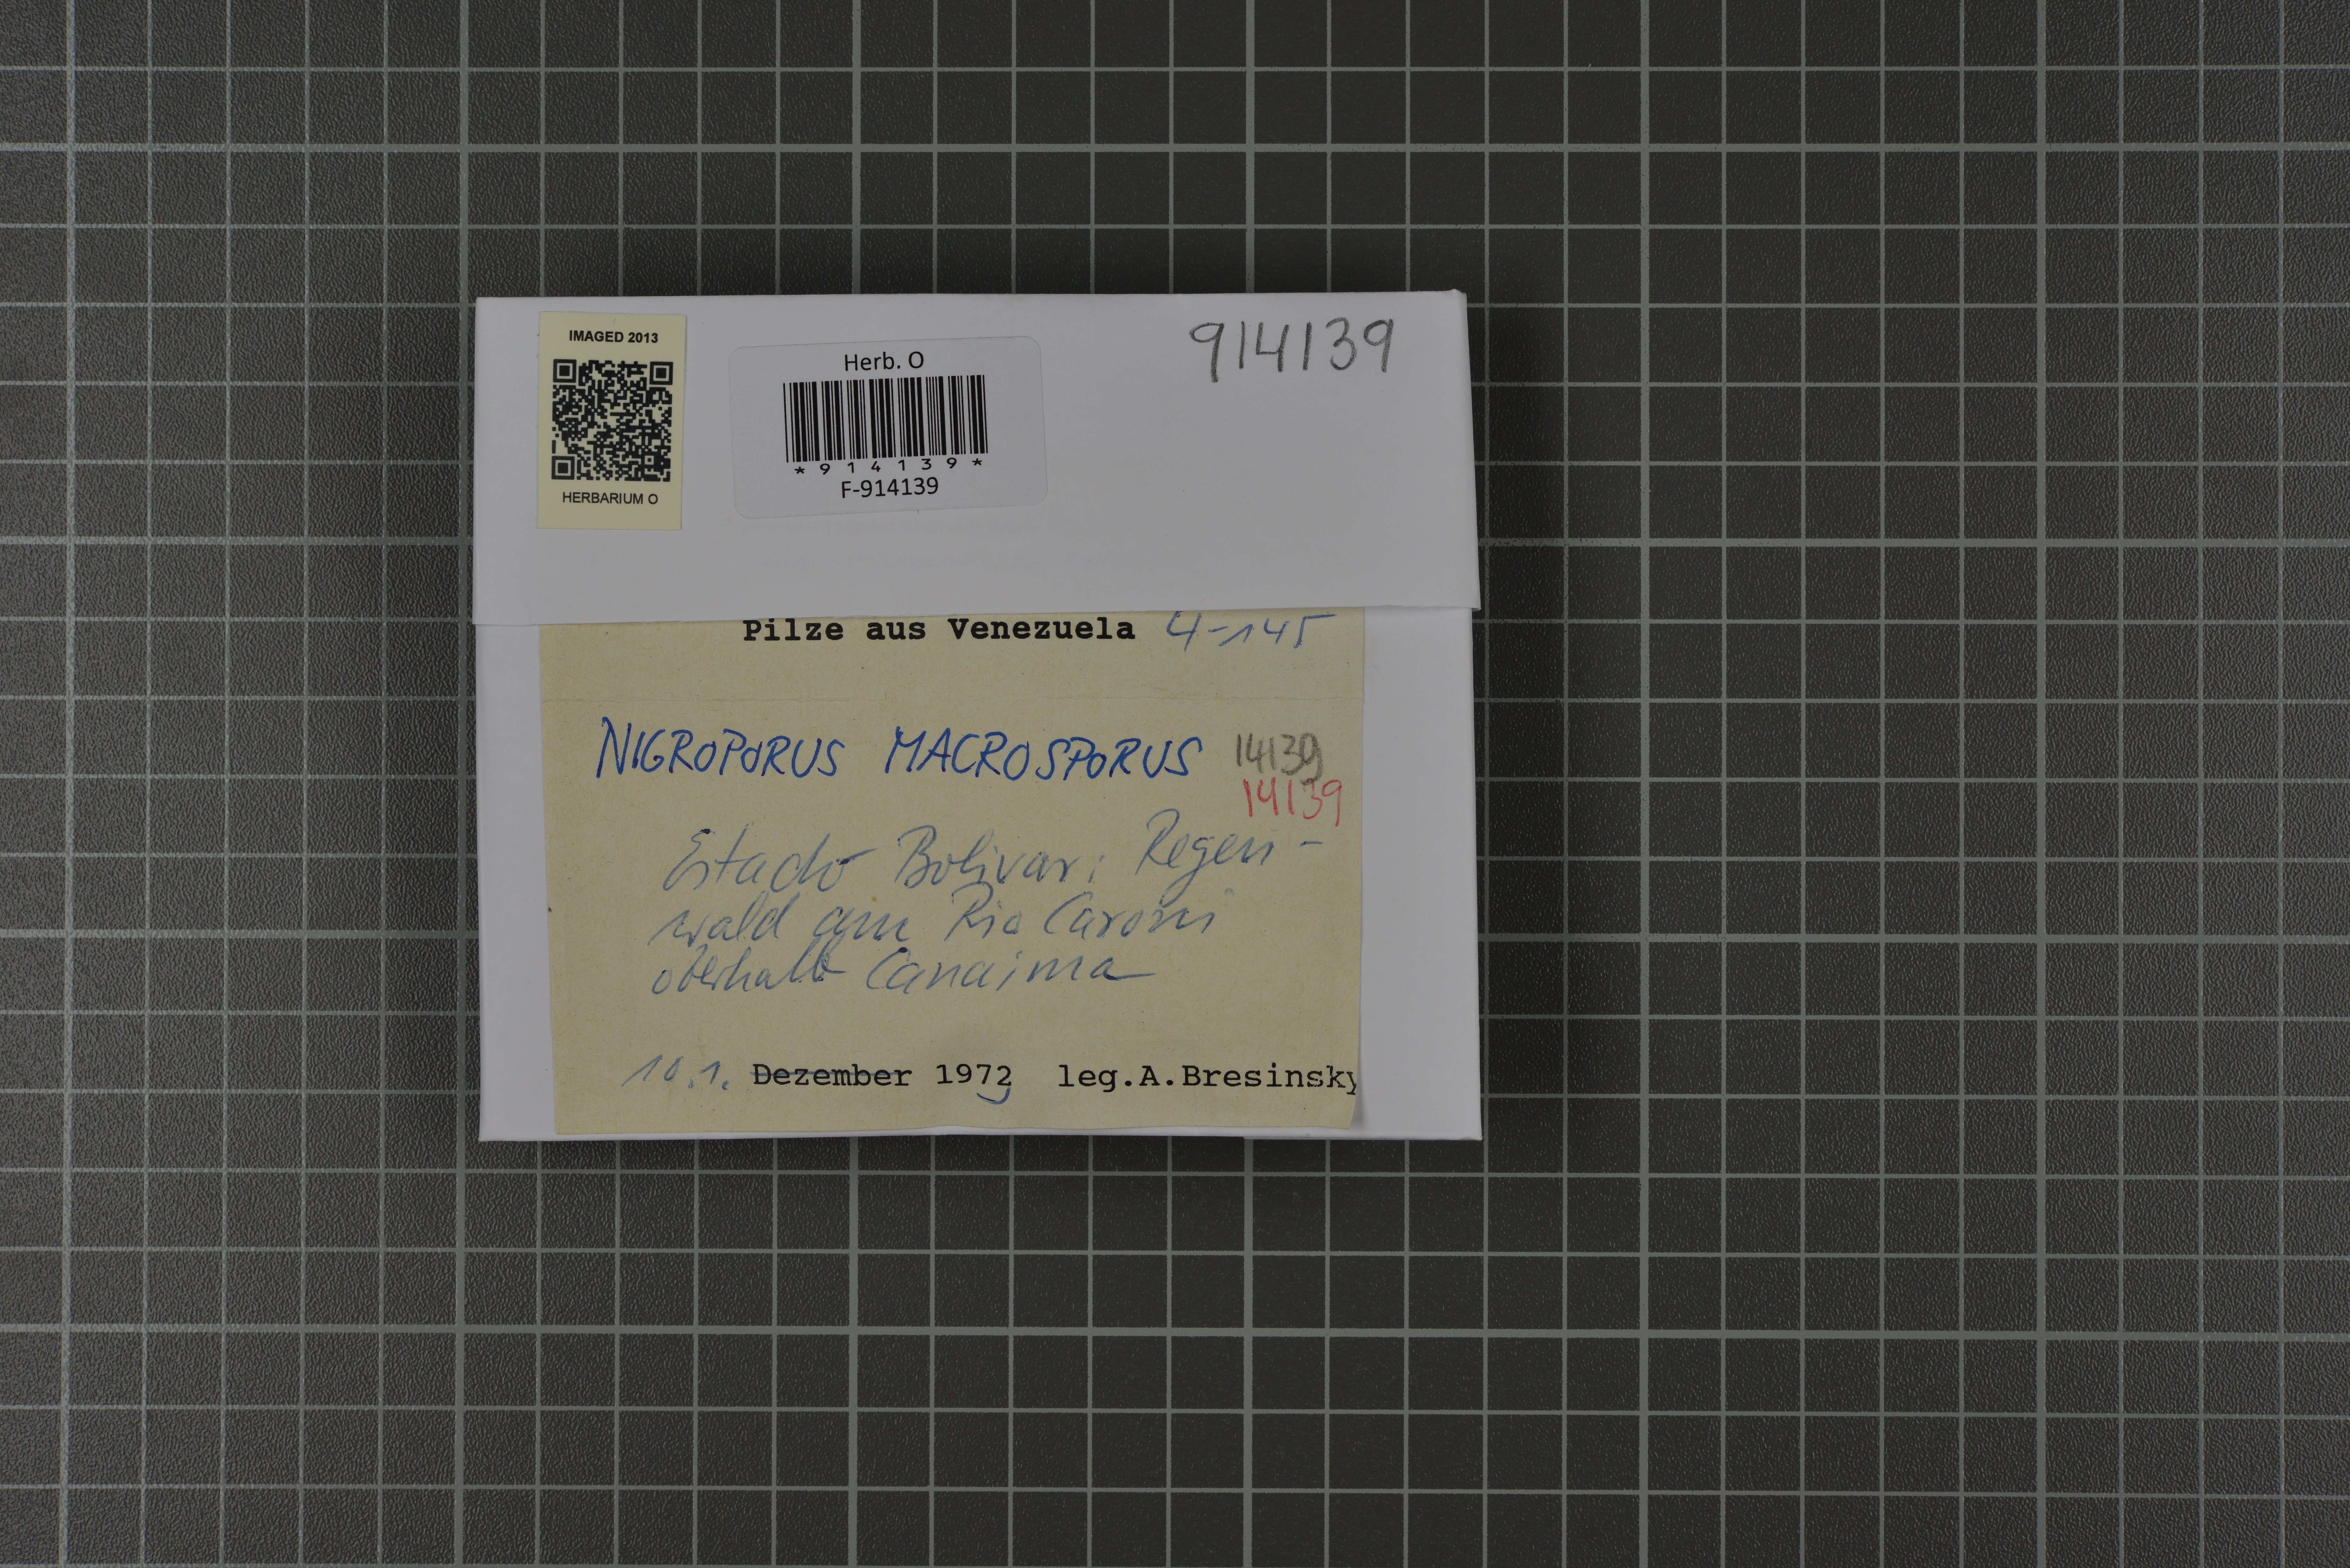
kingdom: Fungi
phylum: Basidiomycota
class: Agaricomycetes
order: Polyporales
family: Steccherinaceae
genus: Nigroporus
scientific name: Nigroporus macroporus
